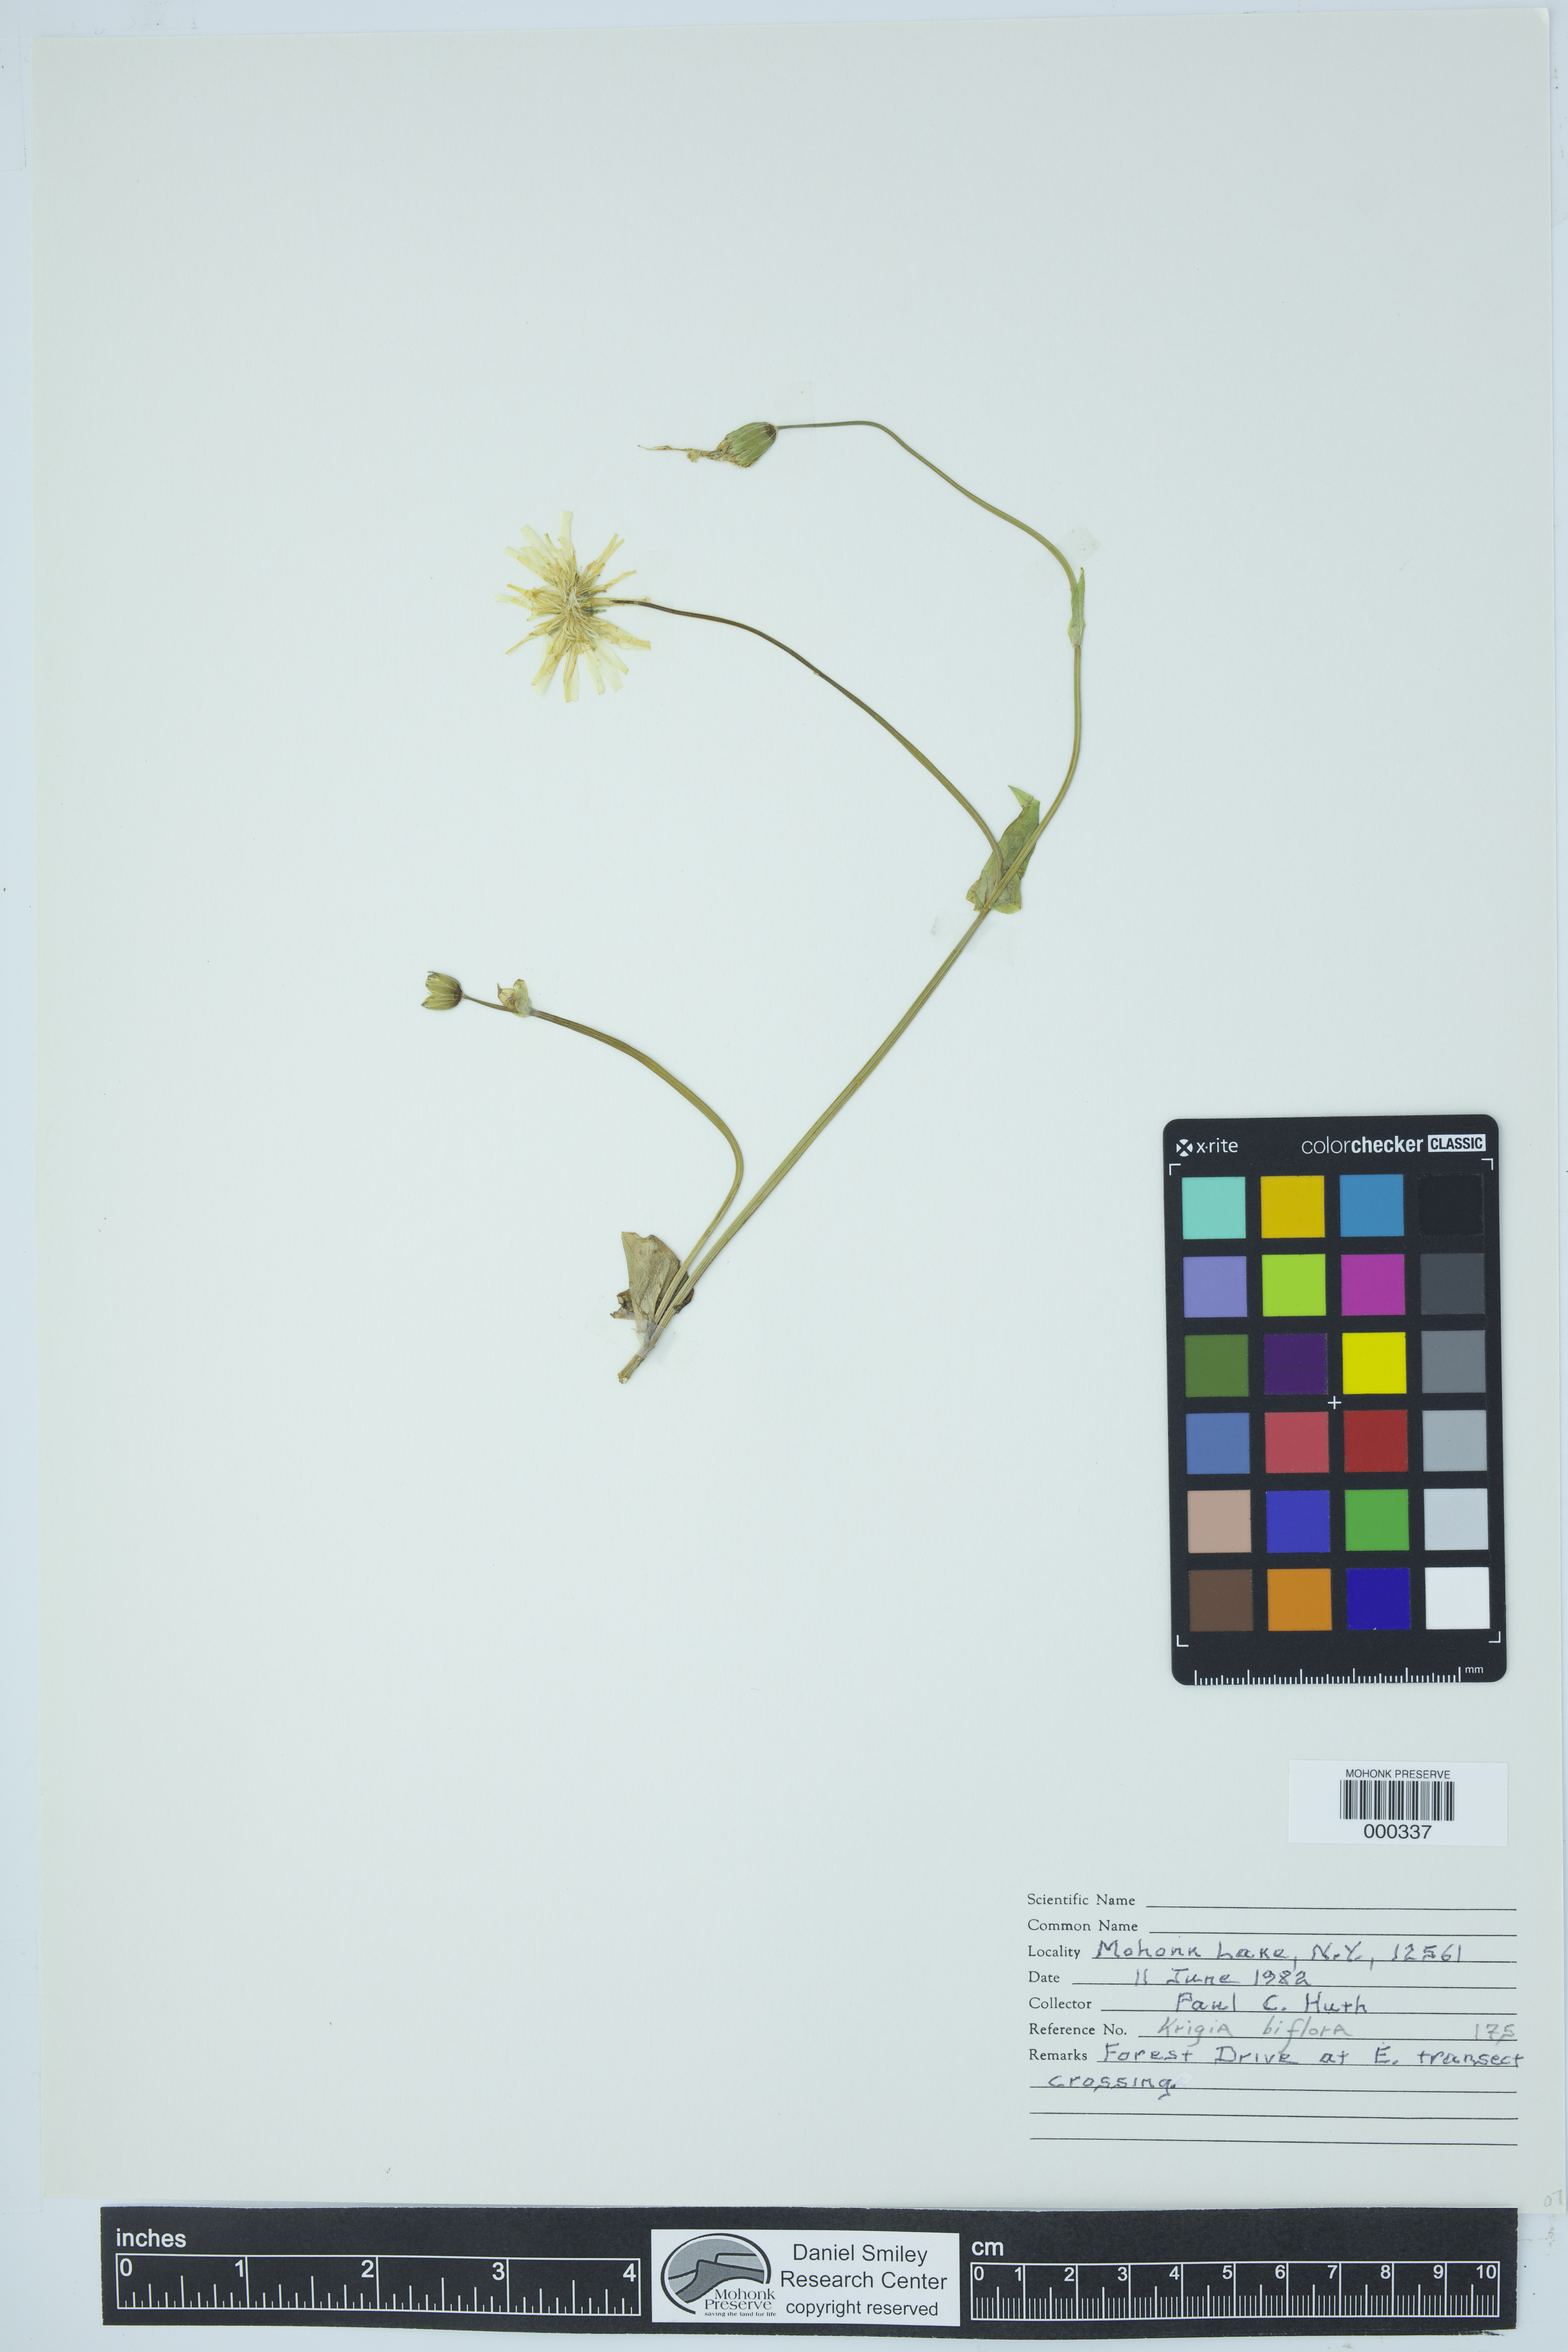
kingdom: Plantae
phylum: Tracheophyta
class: Magnoliopsida
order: Asterales
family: Asteraceae
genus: Krigia
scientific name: Krigia biflora
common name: Orange dwarf-dandelion
